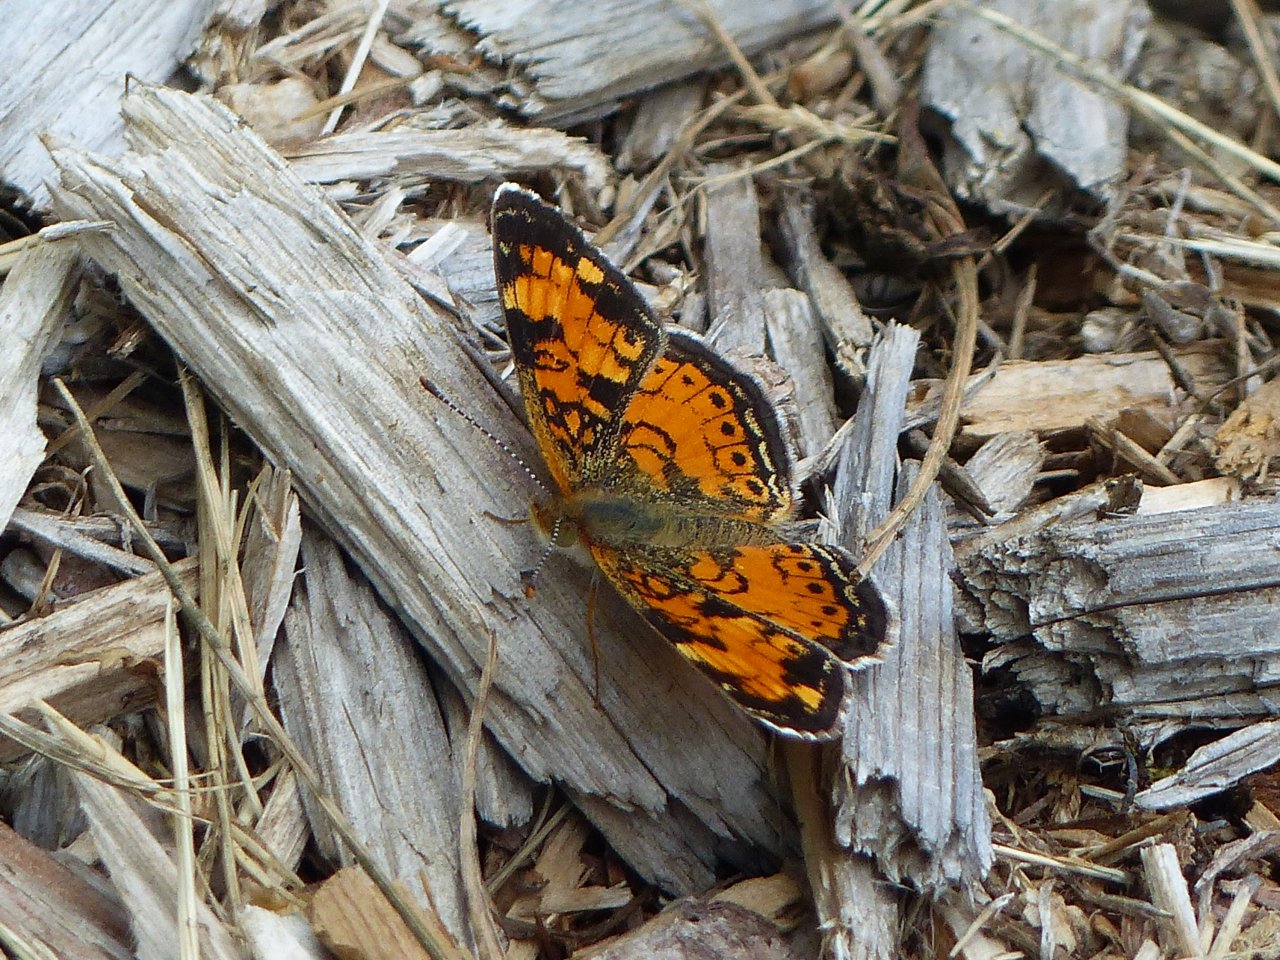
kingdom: Animalia
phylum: Arthropoda
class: Insecta
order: Lepidoptera
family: Nymphalidae
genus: Phyciodes
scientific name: Phyciodes tharos
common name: Northern Crescent
